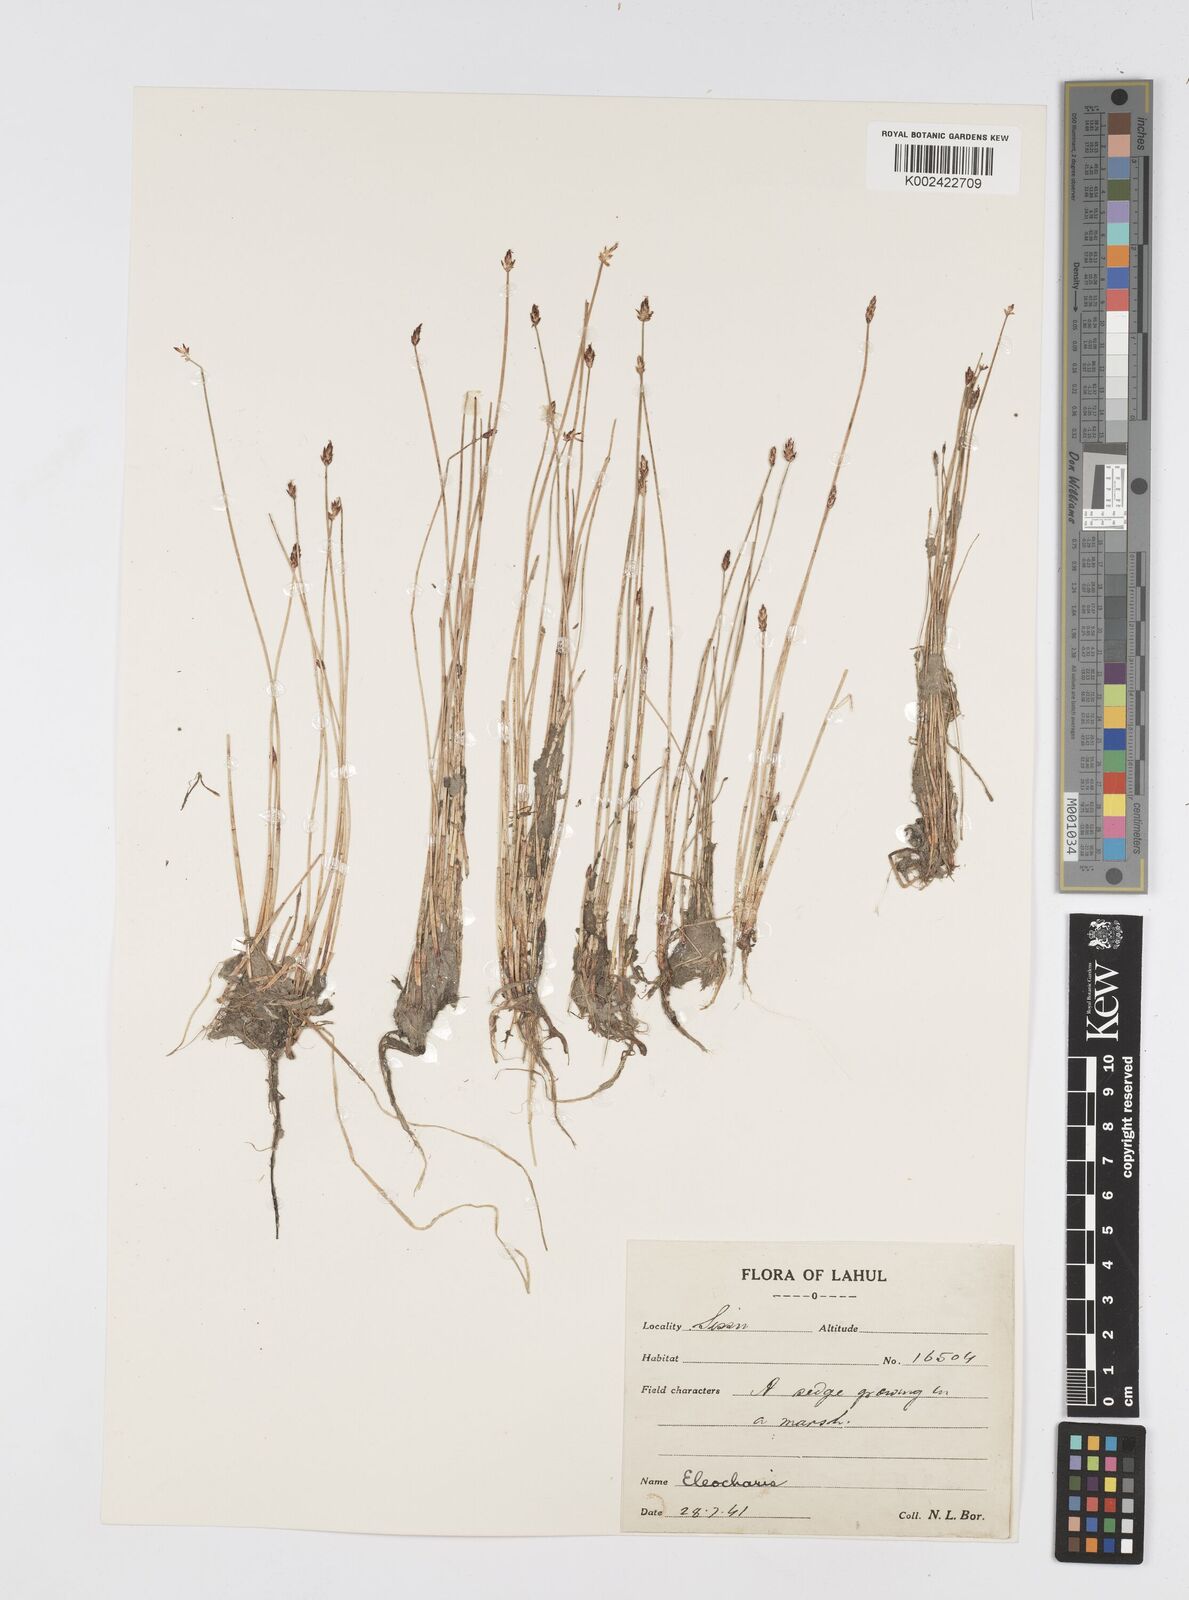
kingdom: Plantae
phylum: Tracheophyta
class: Liliopsida
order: Poales
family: Cyperaceae
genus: Eleocharis
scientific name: Eleocharis
